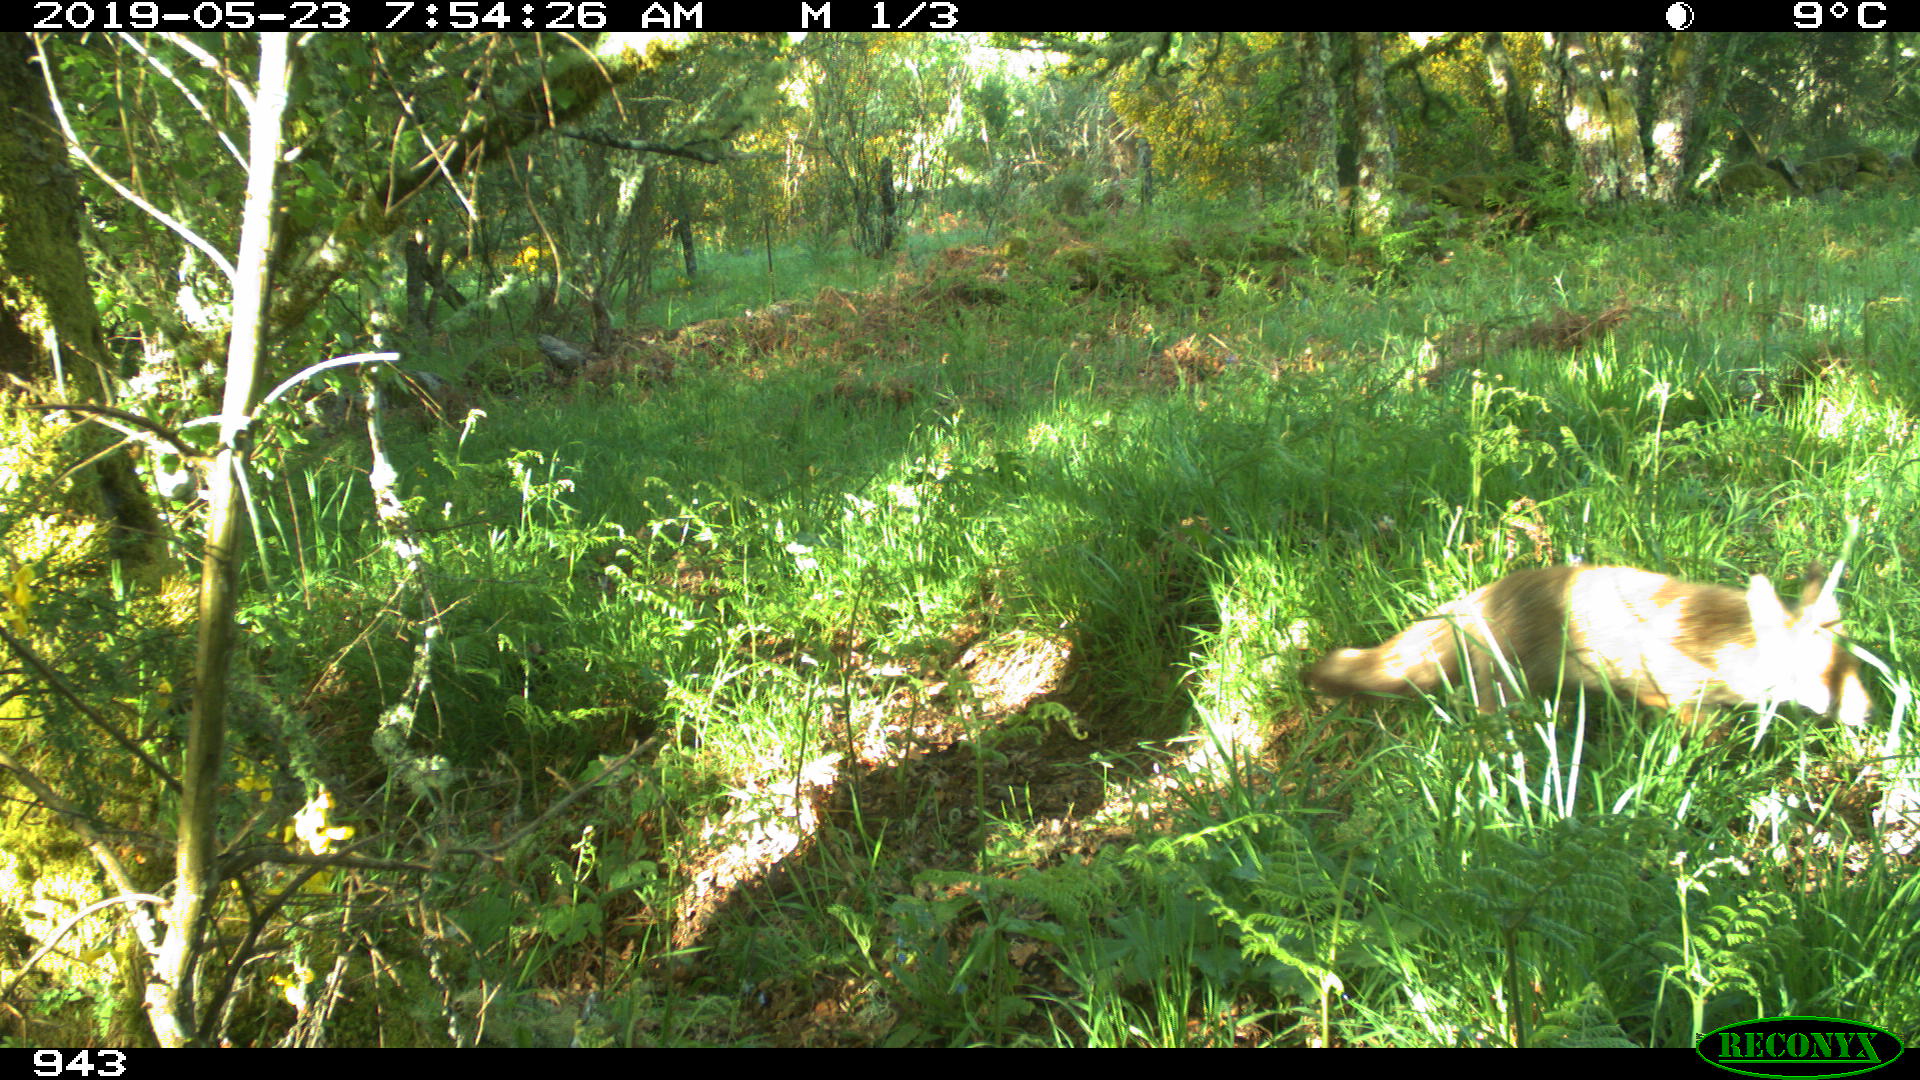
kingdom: Animalia
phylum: Chordata
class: Mammalia
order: Carnivora
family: Canidae
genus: Vulpes
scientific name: Vulpes vulpes
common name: Red fox
